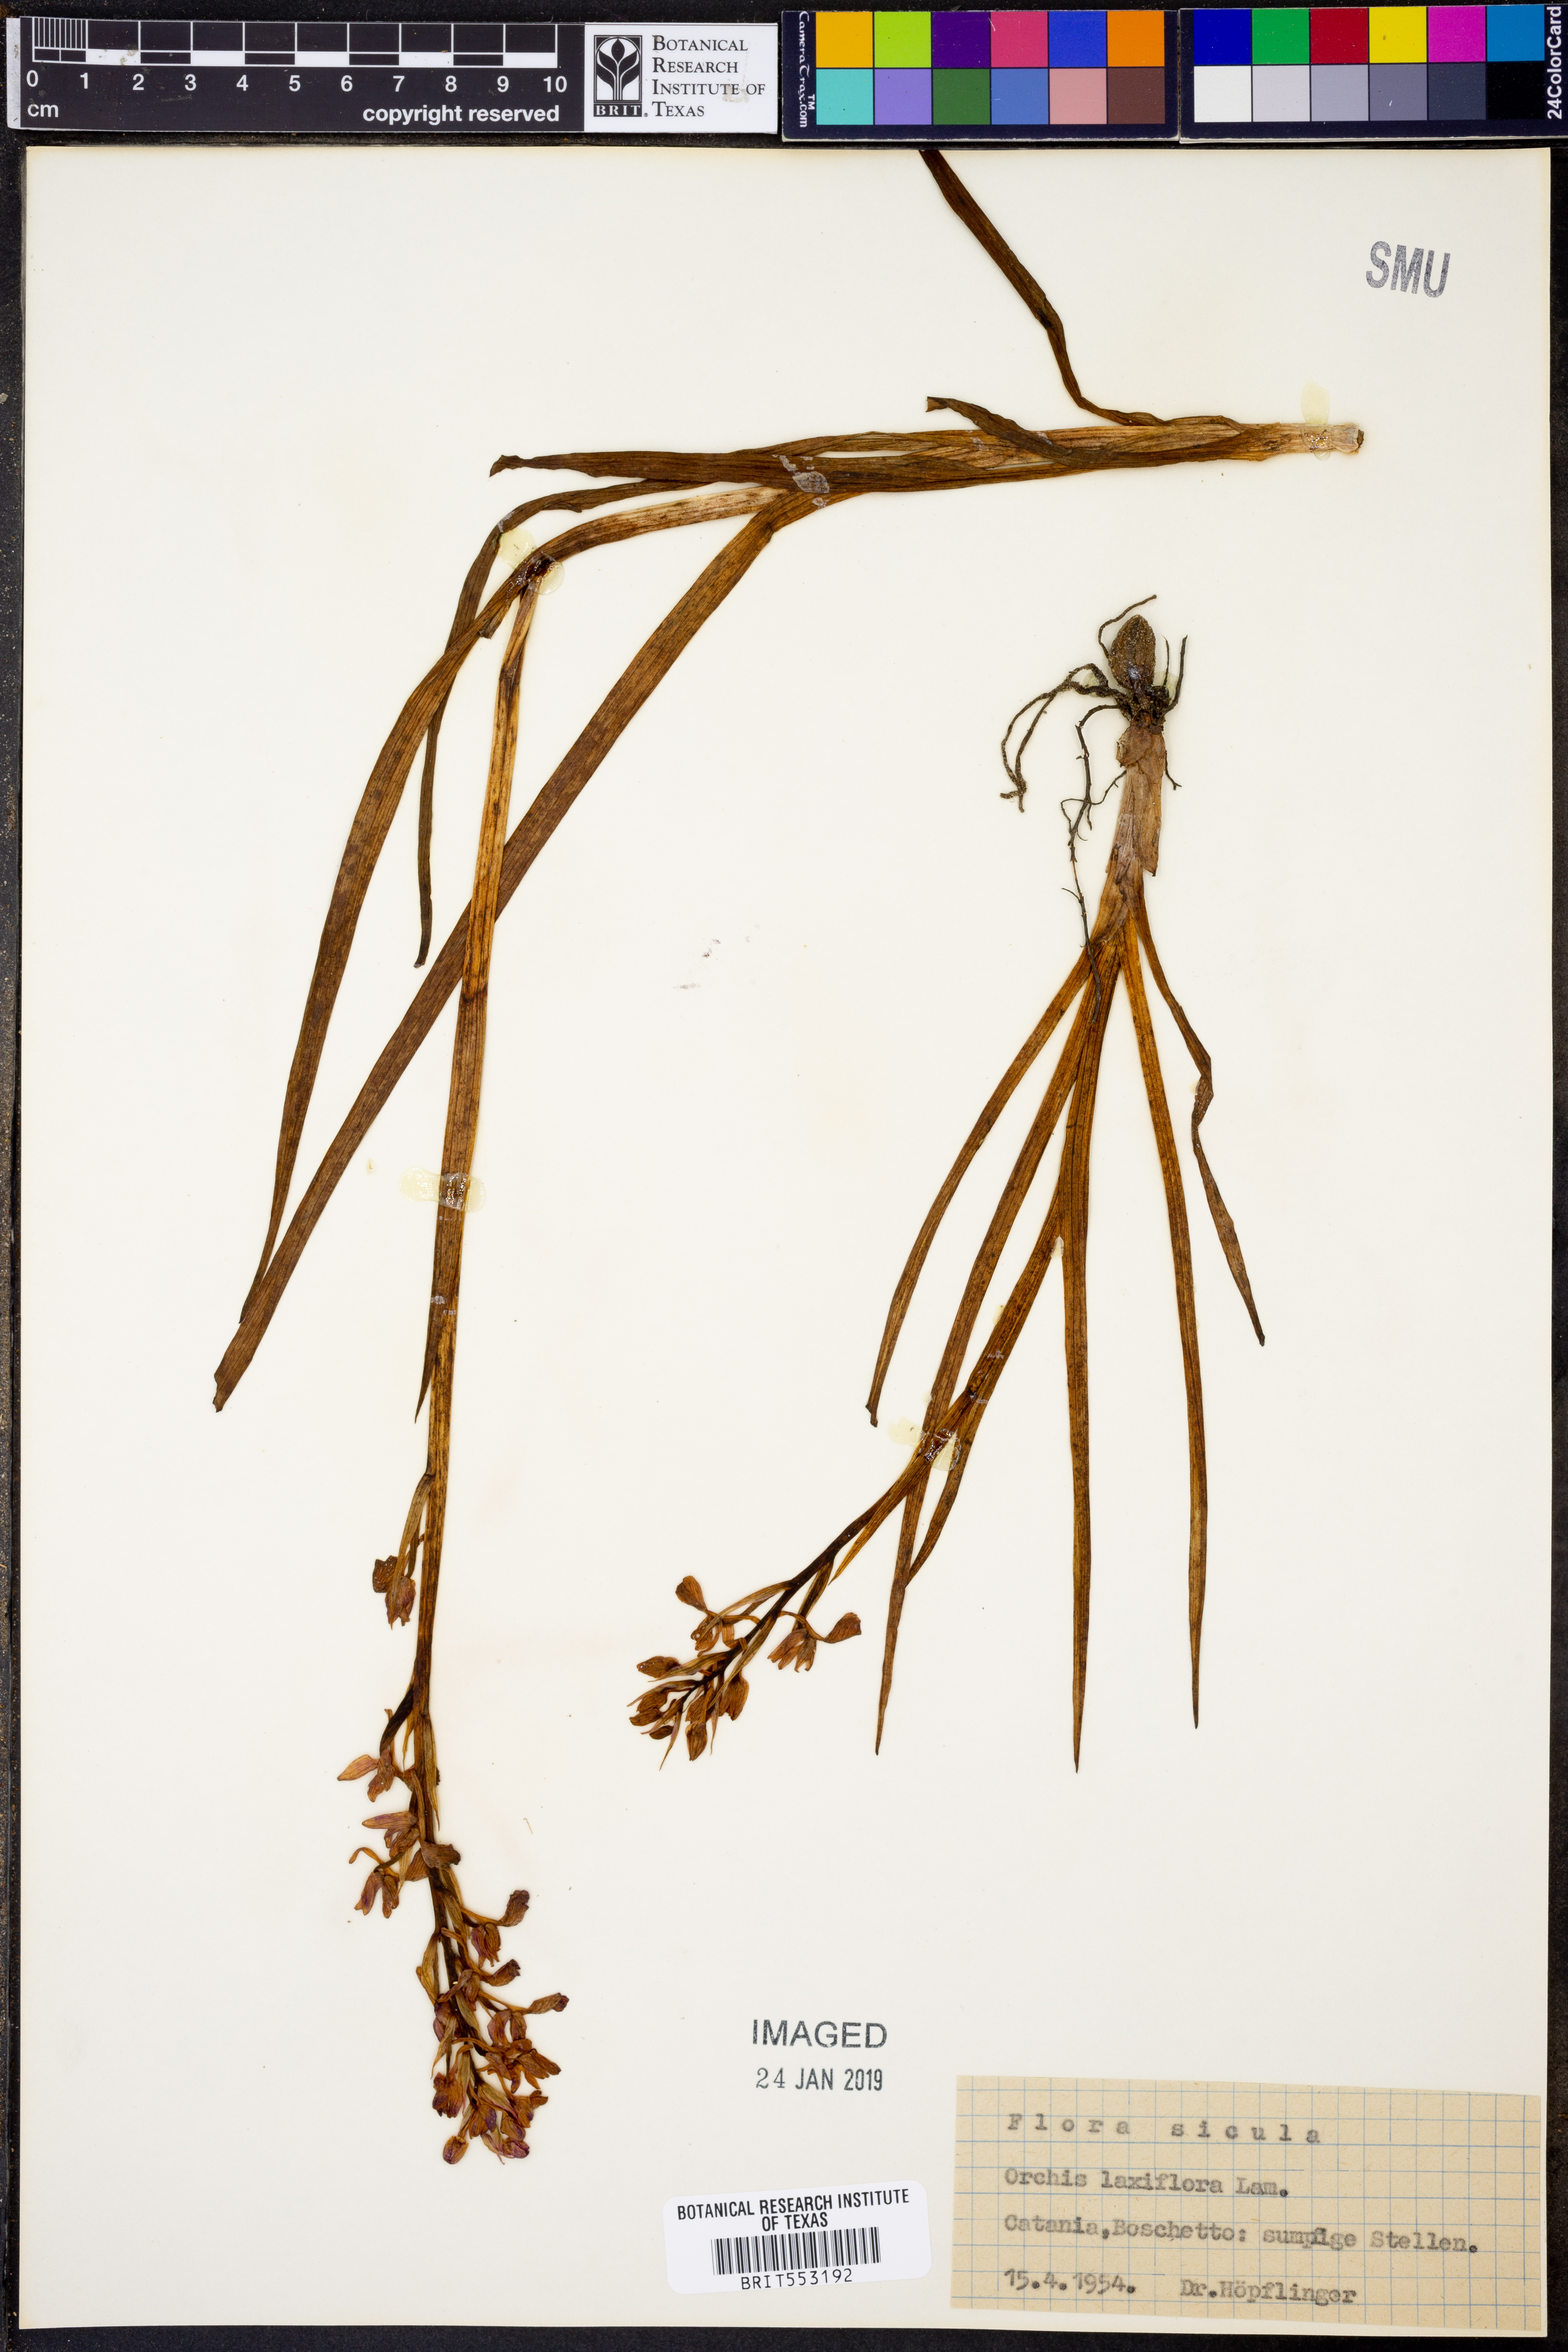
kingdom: Plantae
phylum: Tracheophyta
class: Liliopsida
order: Asparagales
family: Orchidaceae
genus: Anacamptis
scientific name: Anacamptis palustris
